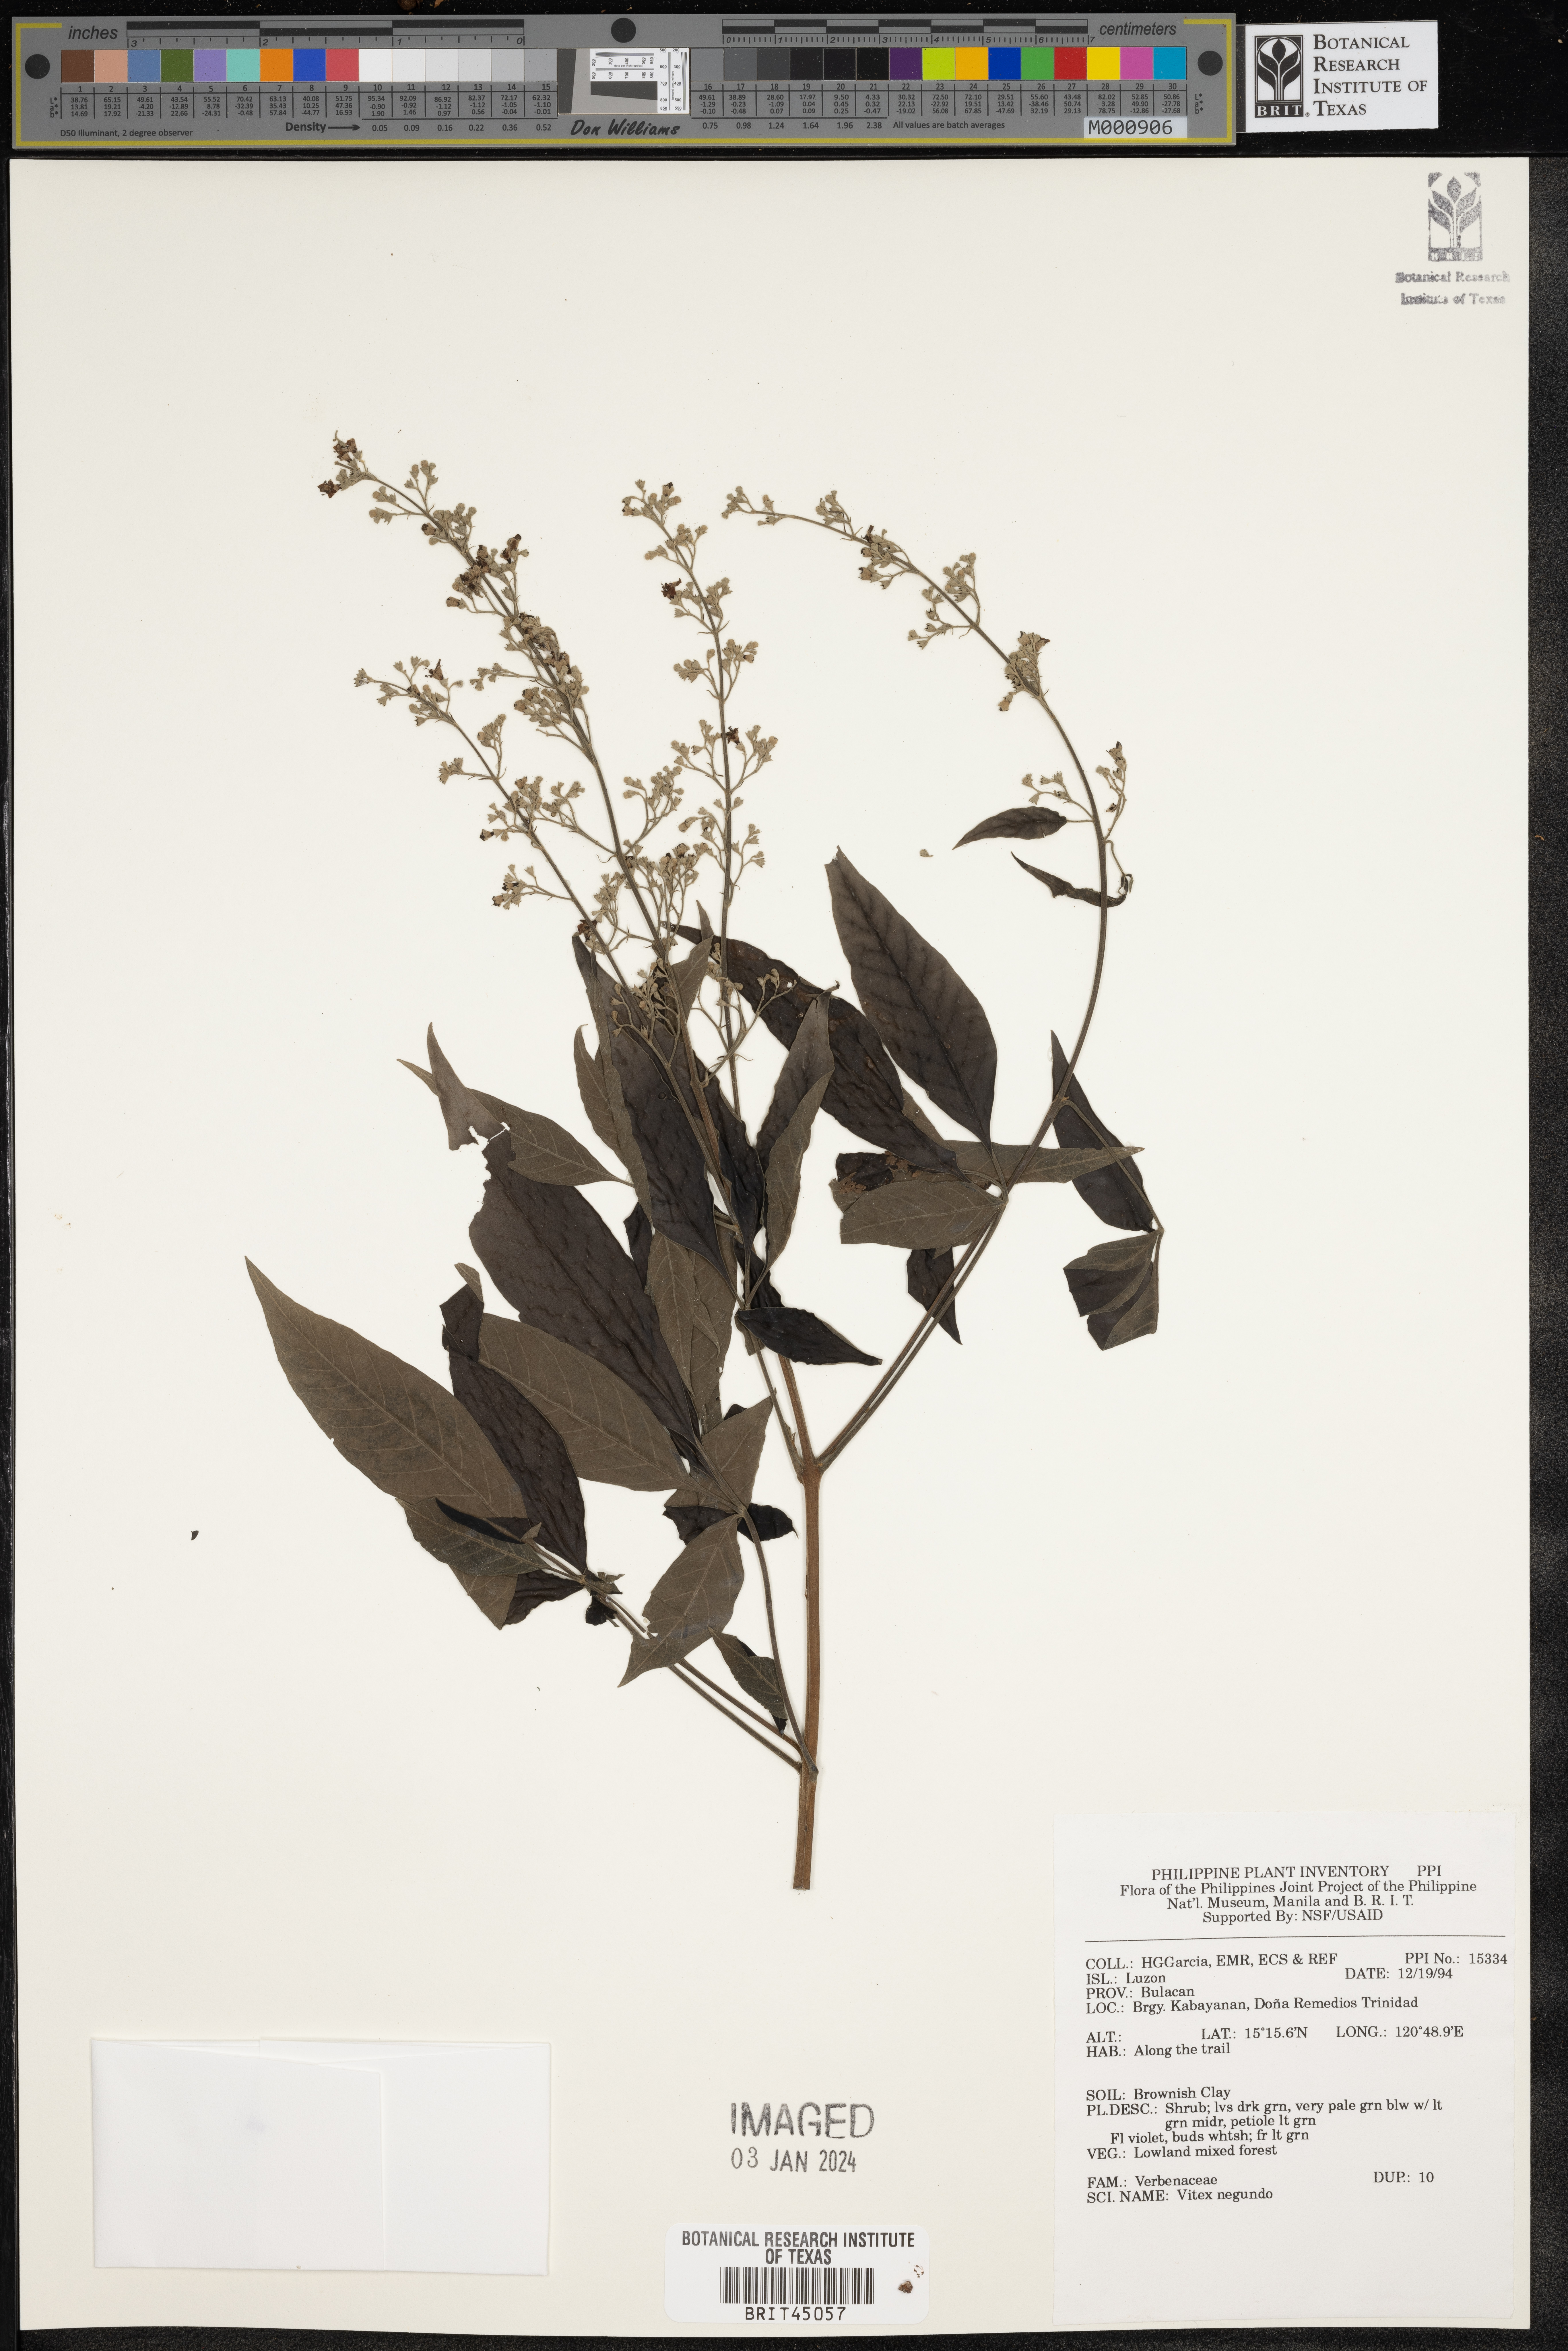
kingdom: Plantae
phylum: Tracheophyta
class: Magnoliopsida
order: Lamiales
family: Lamiaceae
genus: Vitex
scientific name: Vitex negundo
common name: Chinese chastetree
